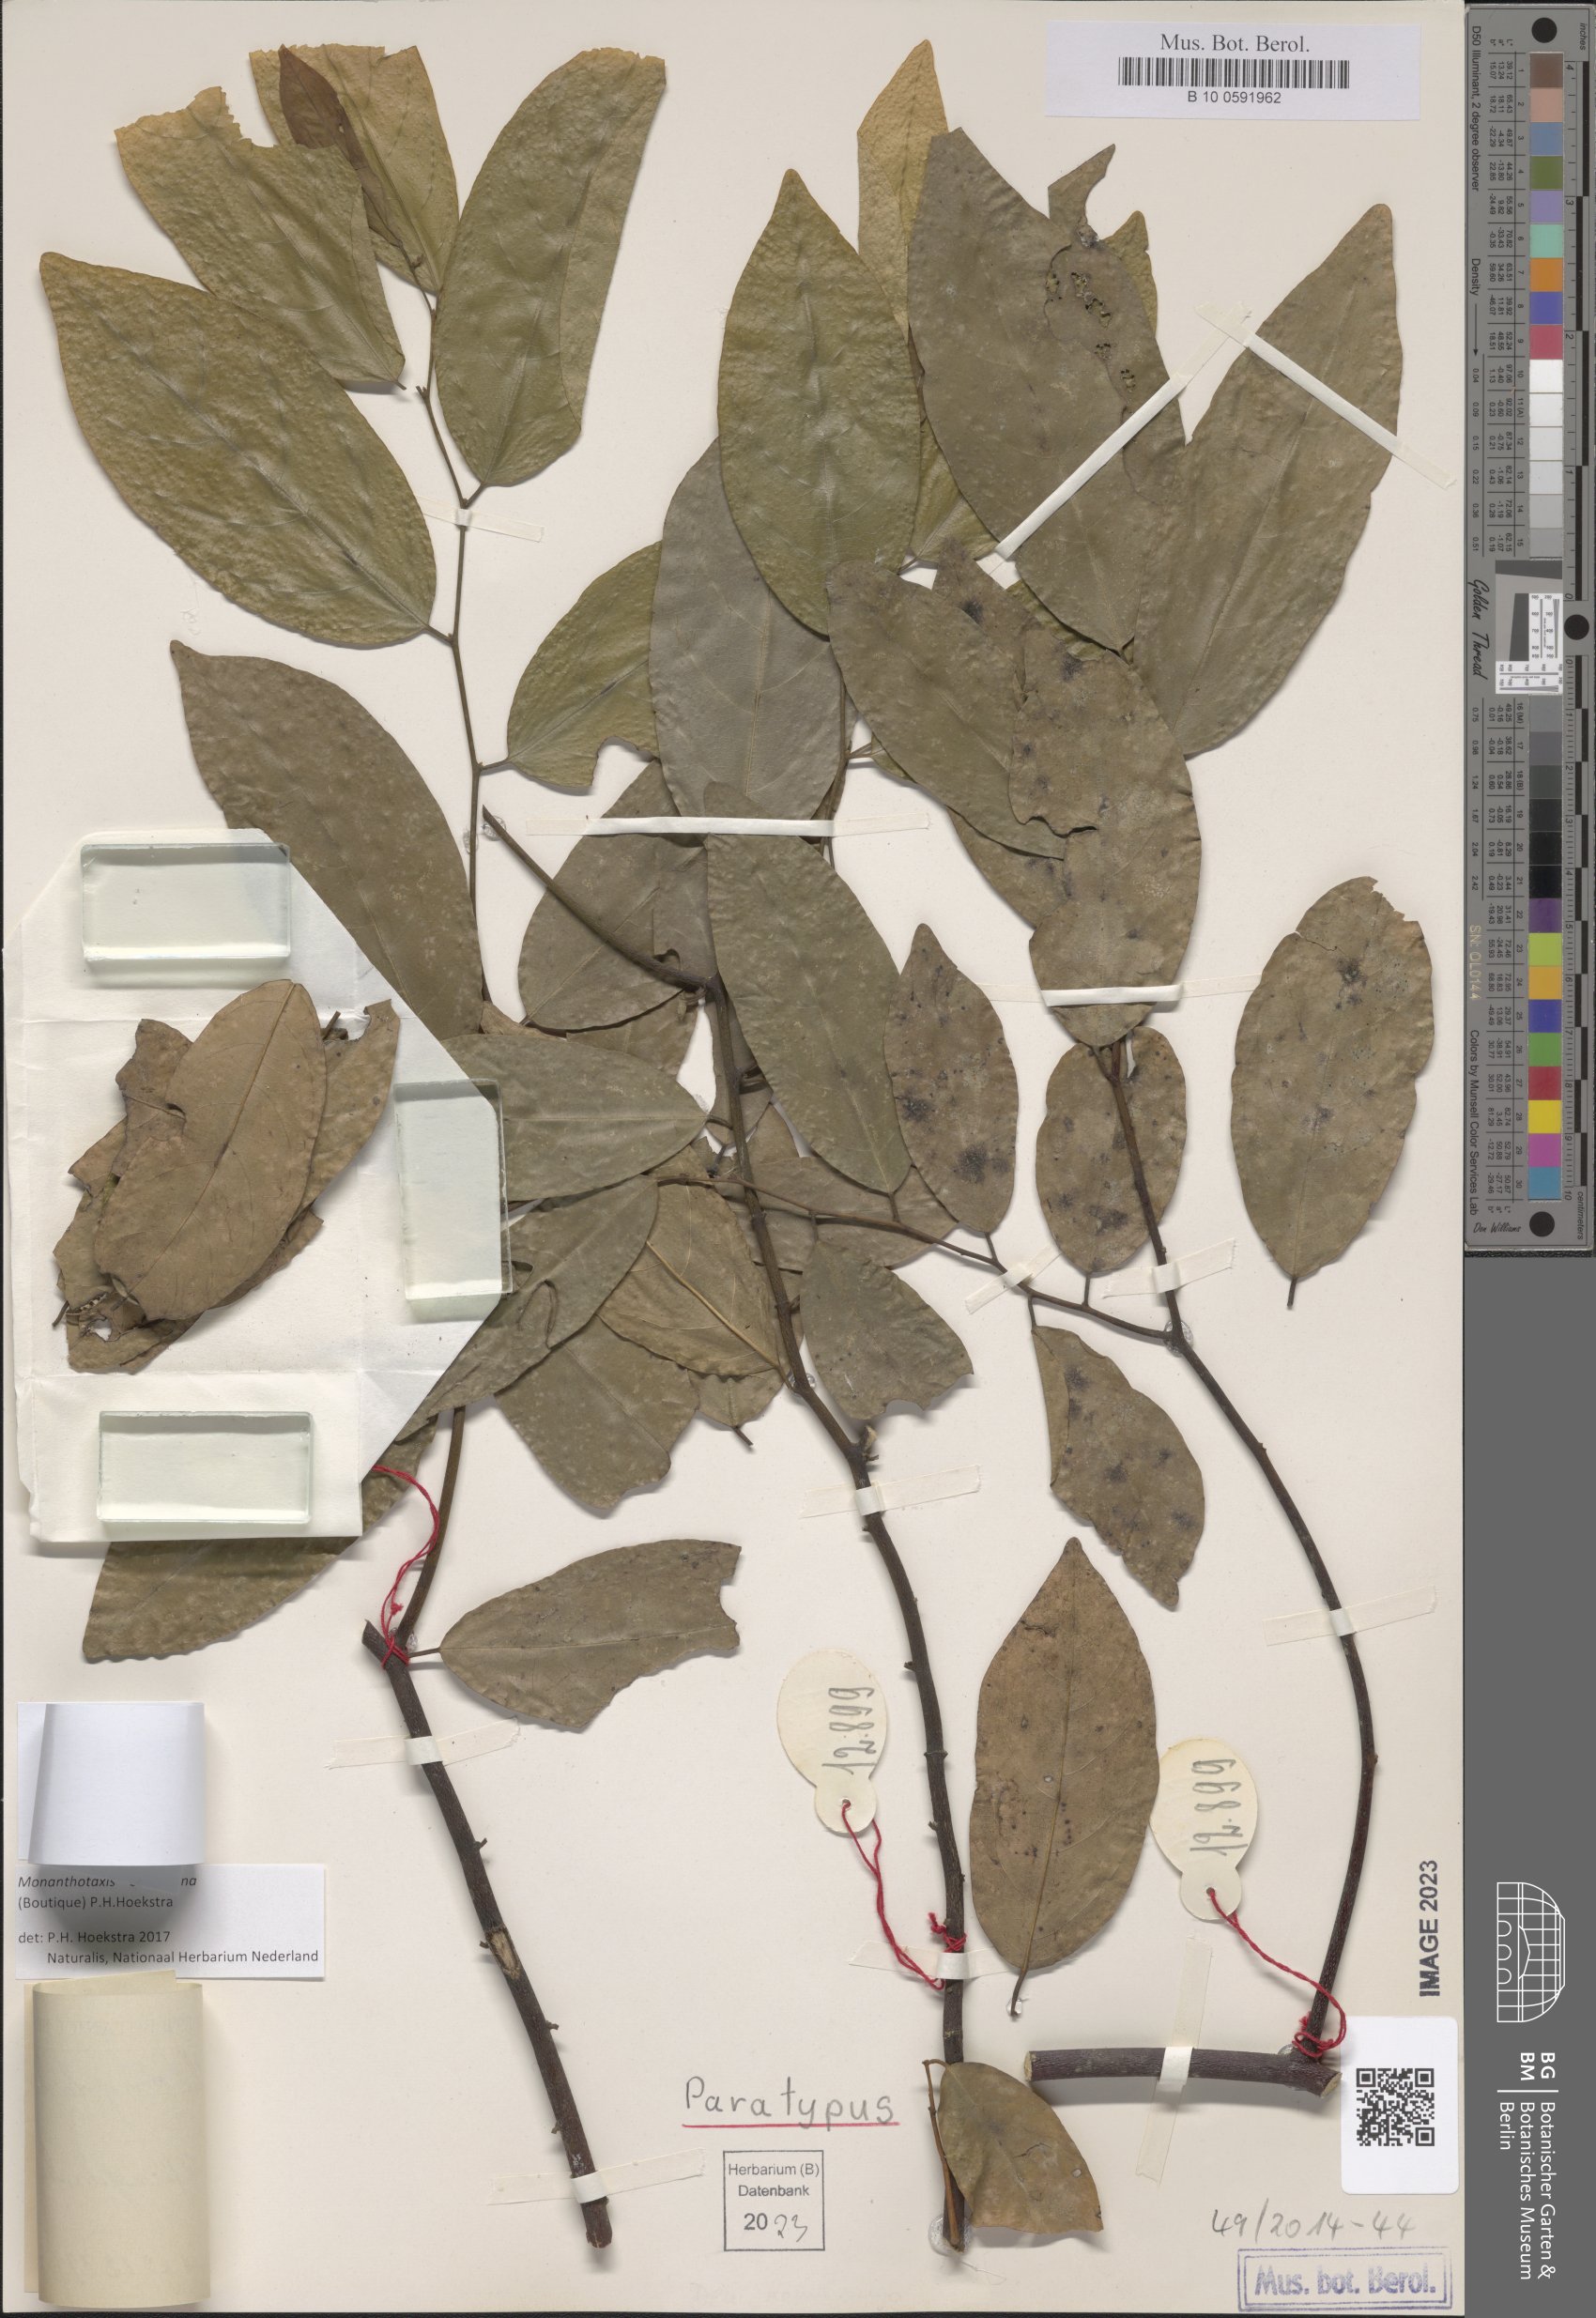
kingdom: Plantae
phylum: Tracheophyta
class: Magnoliopsida
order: Magnoliales
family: Annonaceae
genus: Gilbertiella
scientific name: Gilbertiella congolana
